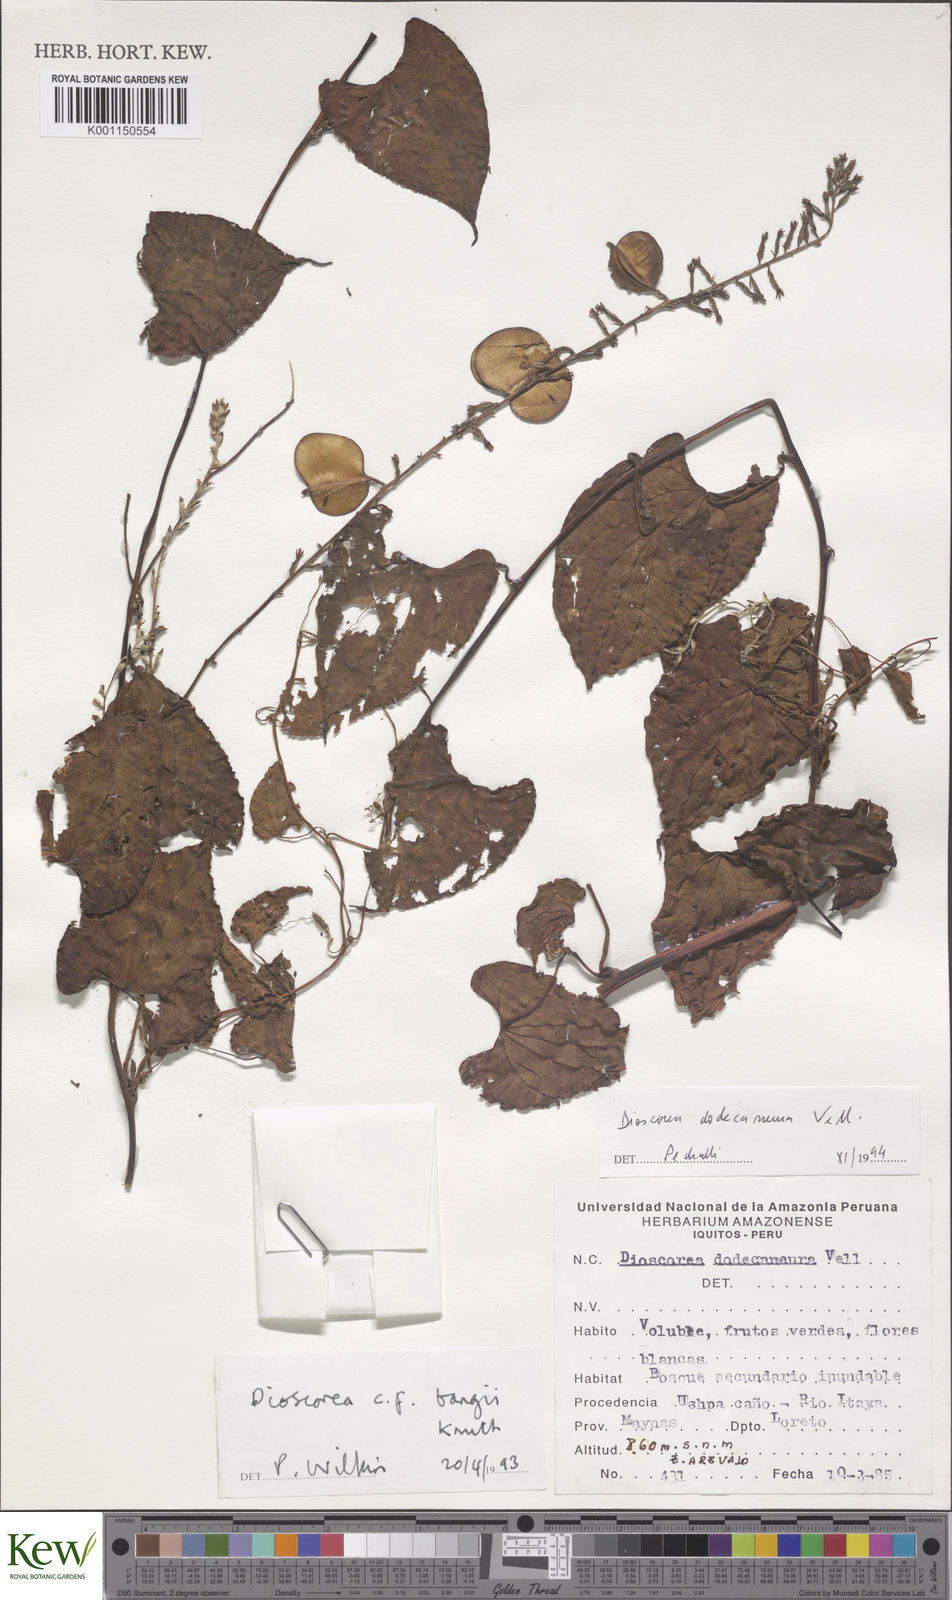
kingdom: Plantae
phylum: Tracheophyta
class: Liliopsida
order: Dioscoreales
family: Dioscoreaceae
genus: Dioscorea
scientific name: Dioscorea dodecaneura
